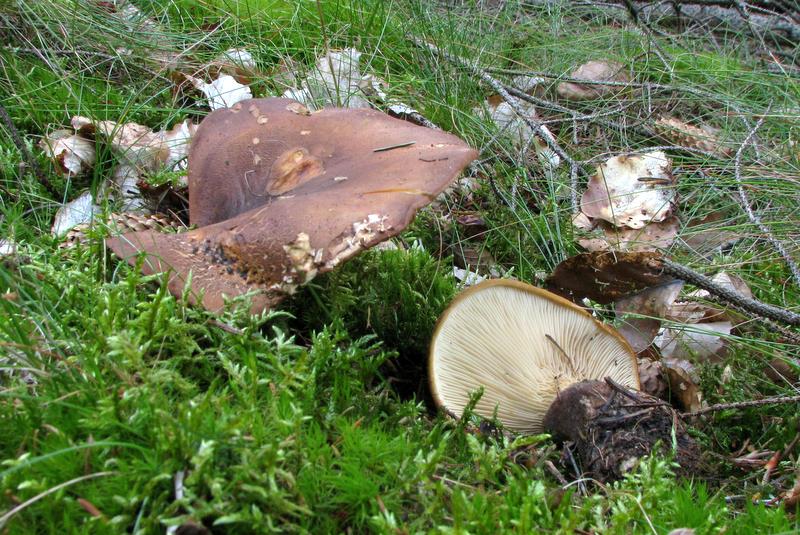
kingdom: Fungi
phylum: Basidiomycota
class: Agaricomycetes
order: Boletales
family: Tapinellaceae
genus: Tapinella
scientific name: Tapinella atrotomentosa
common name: sortfiltet viftesvamp
